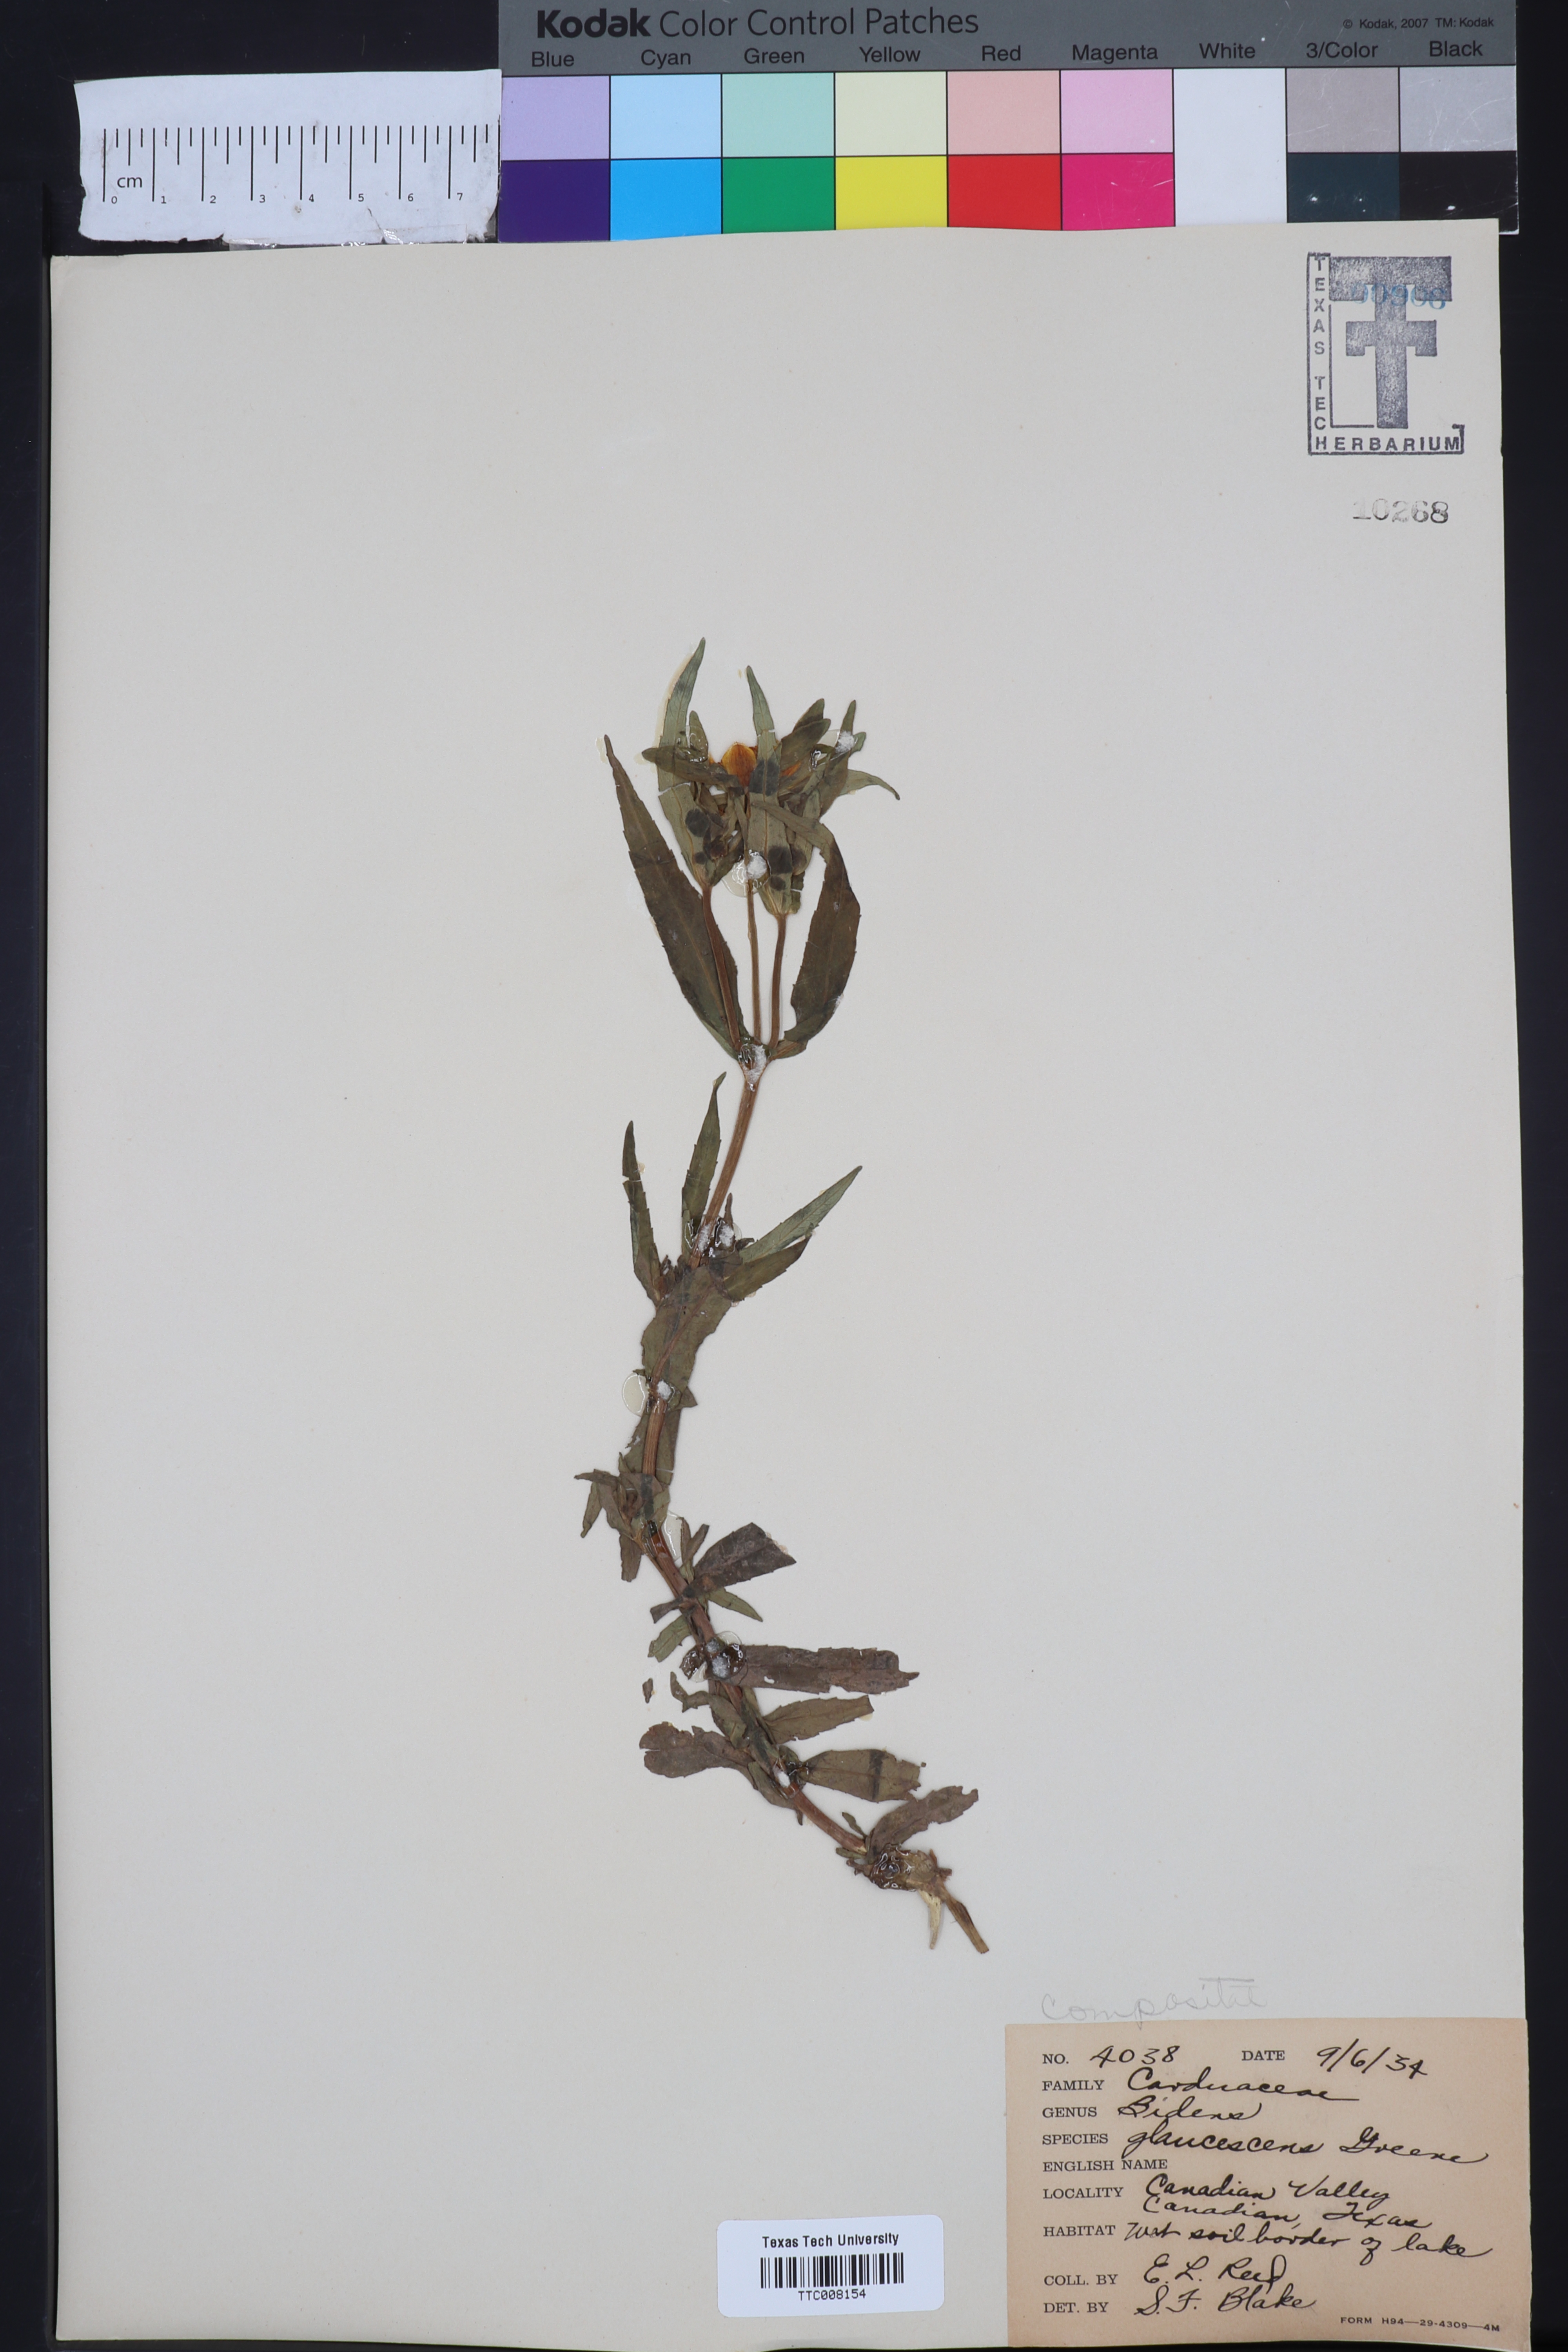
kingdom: Plantae
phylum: Tracheophyta
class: Magnoliopsida
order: Asterales
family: Asteraceae
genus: Bidens
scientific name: Bidens cernua
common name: Nodding bur-marigold
